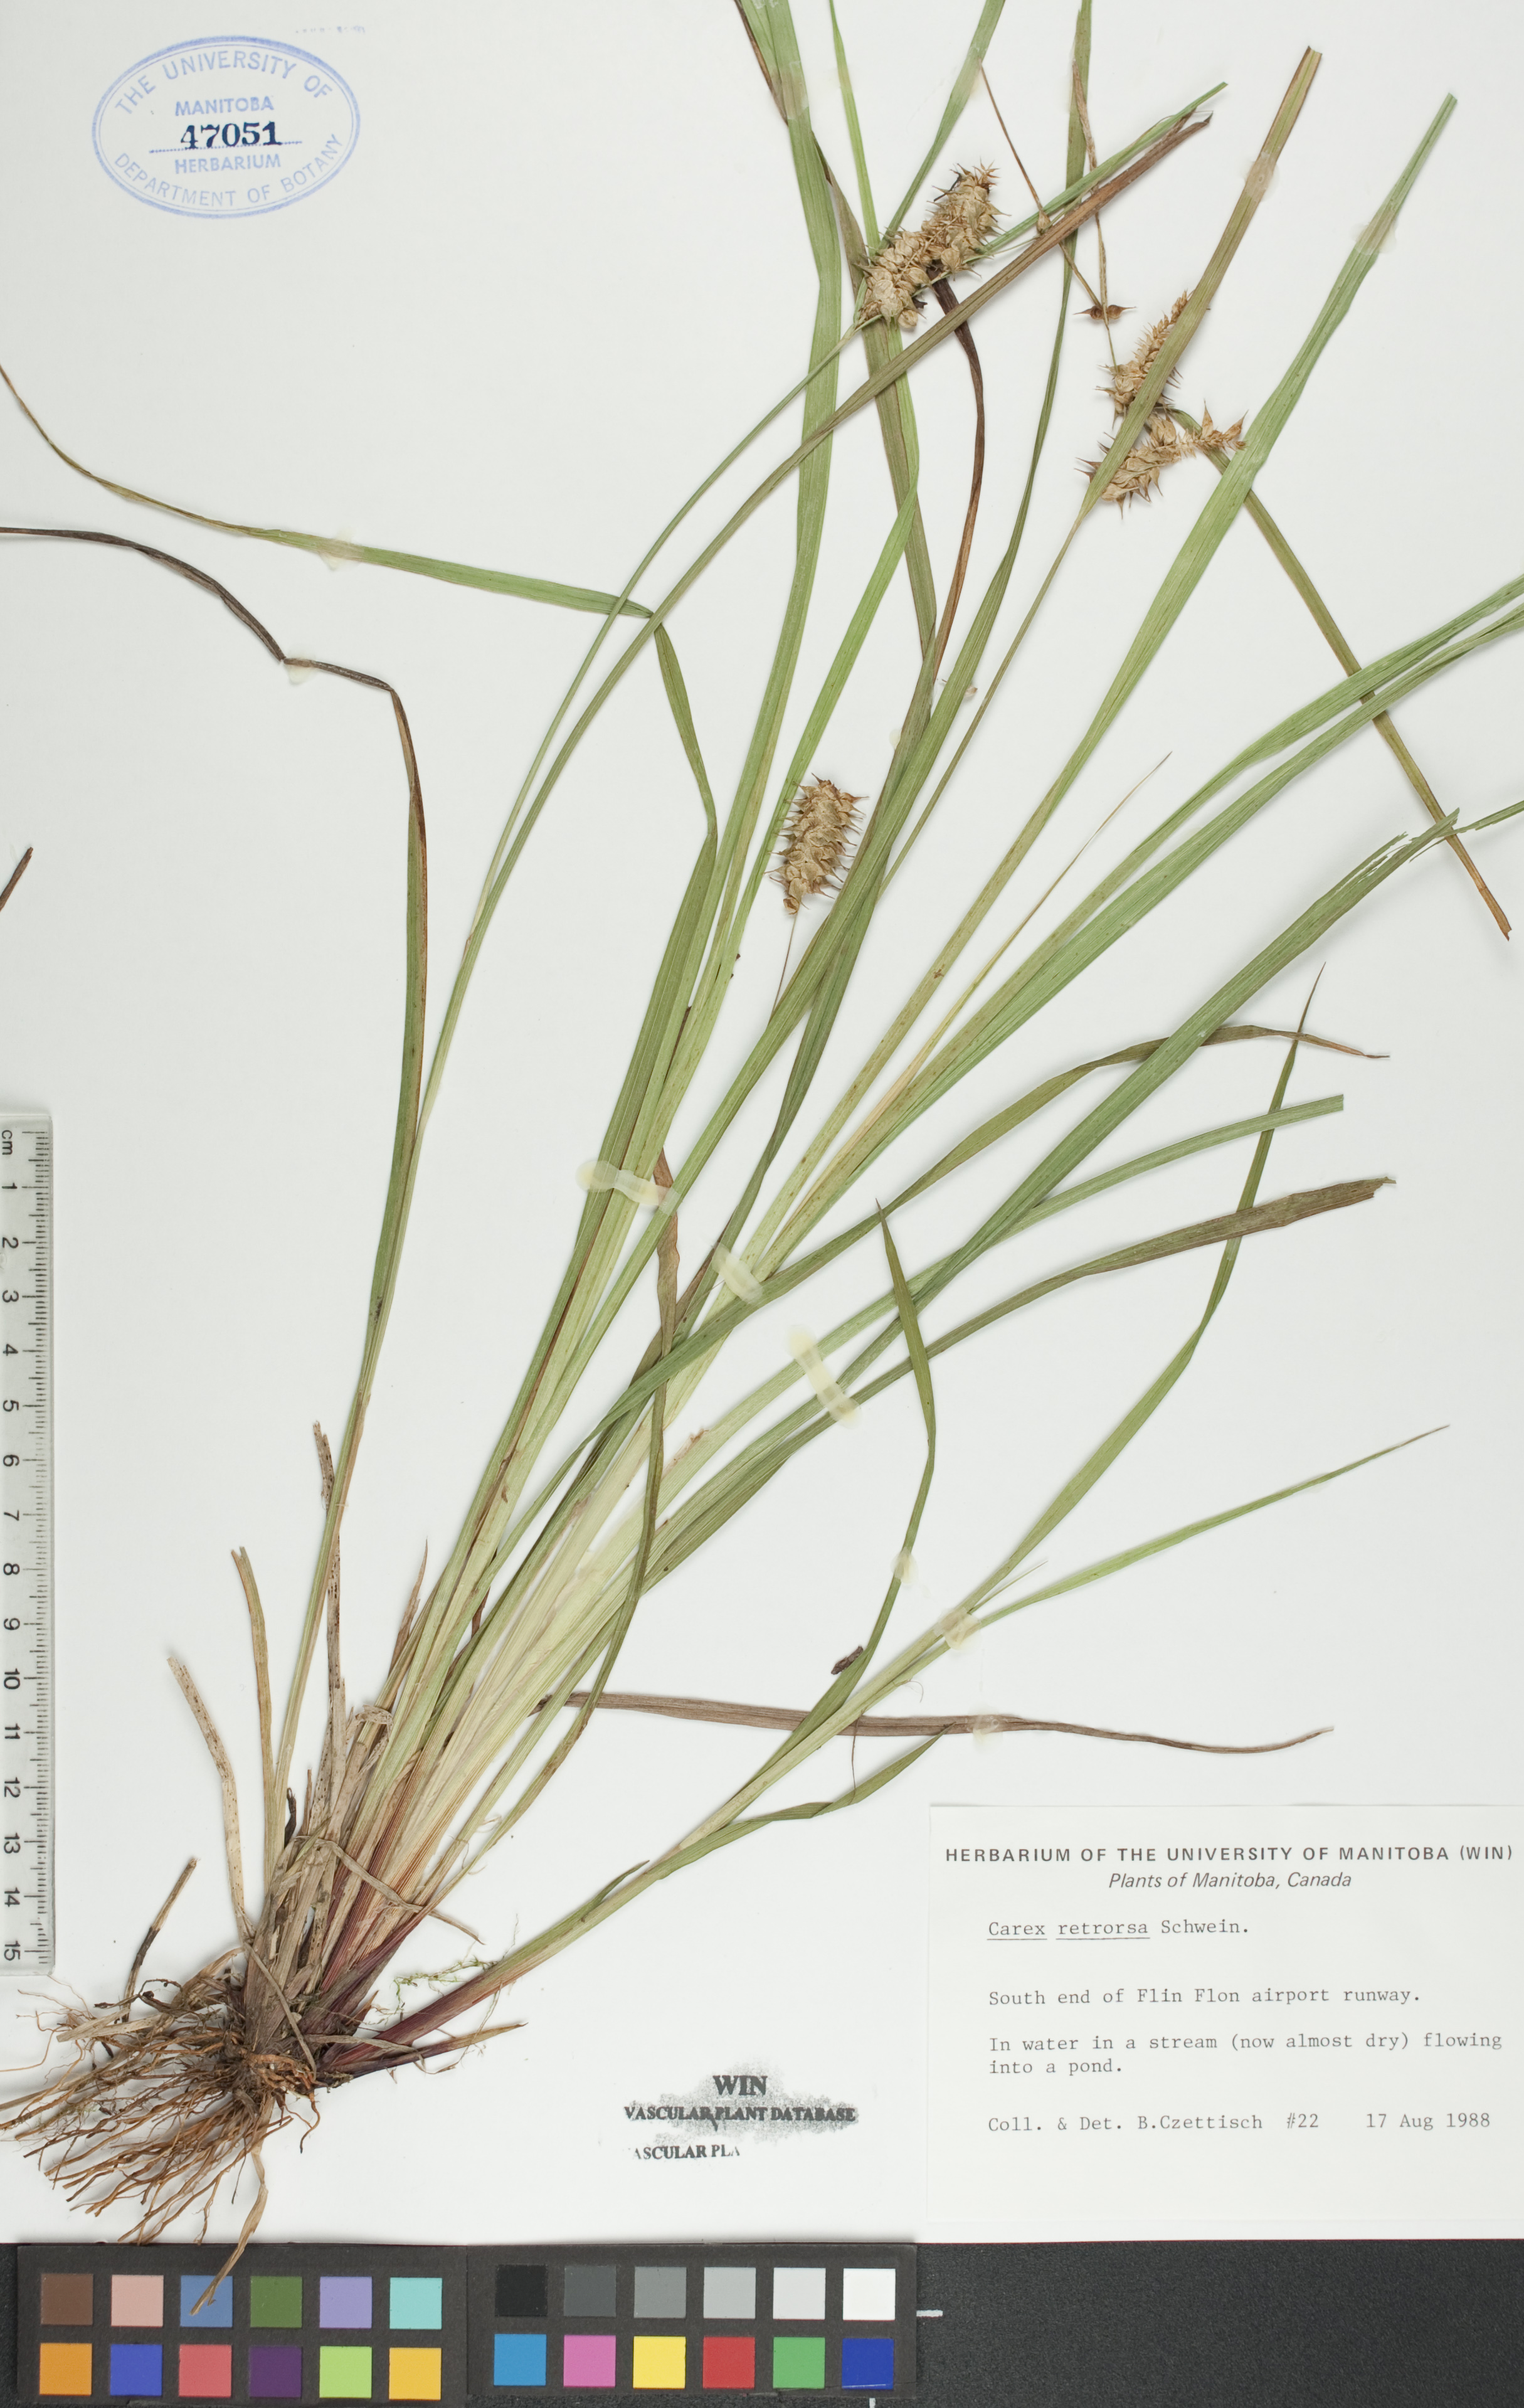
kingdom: Plantae
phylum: Tracheophyta
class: Liliopsida
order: Poales
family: Cyperaceae
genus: Carex
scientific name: Carex retrorsa
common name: Knot-sheath sedge
